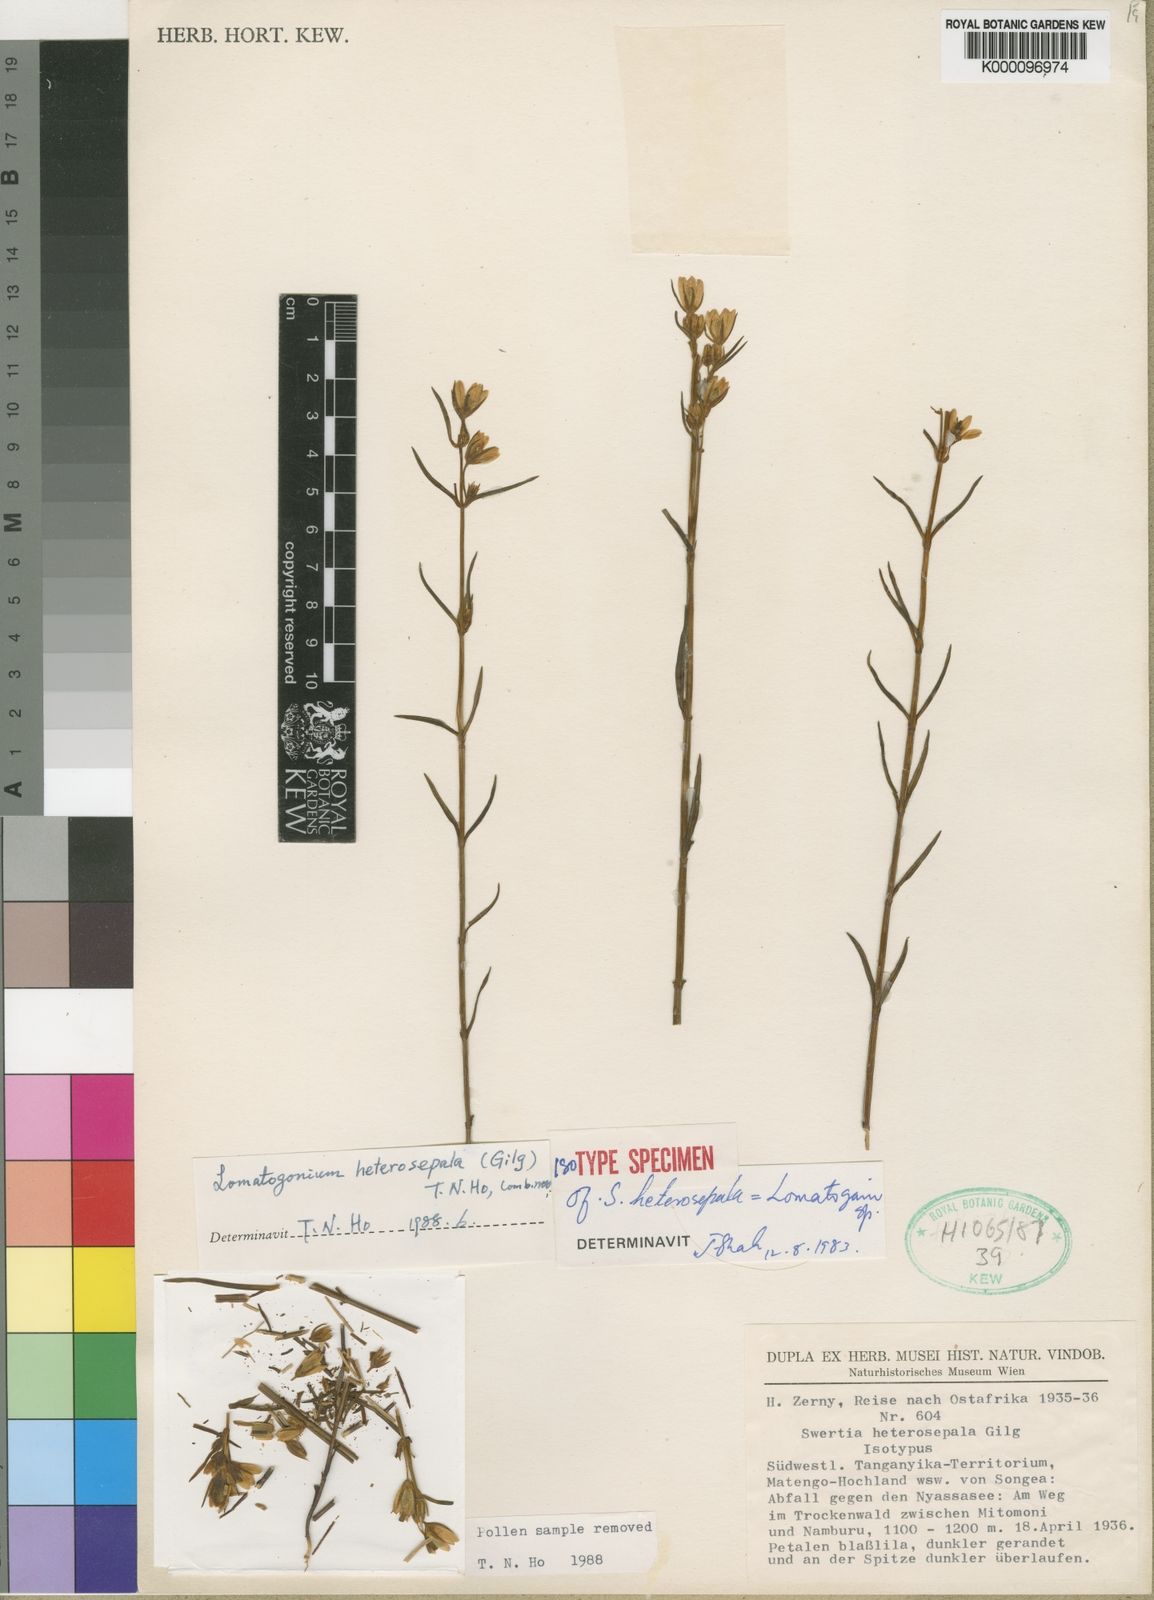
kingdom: Plantae
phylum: Tracheophyta
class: Magnoliopsida
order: Gentianales
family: Gentianaceae
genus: Lomatogonium
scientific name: Lomatogonium
